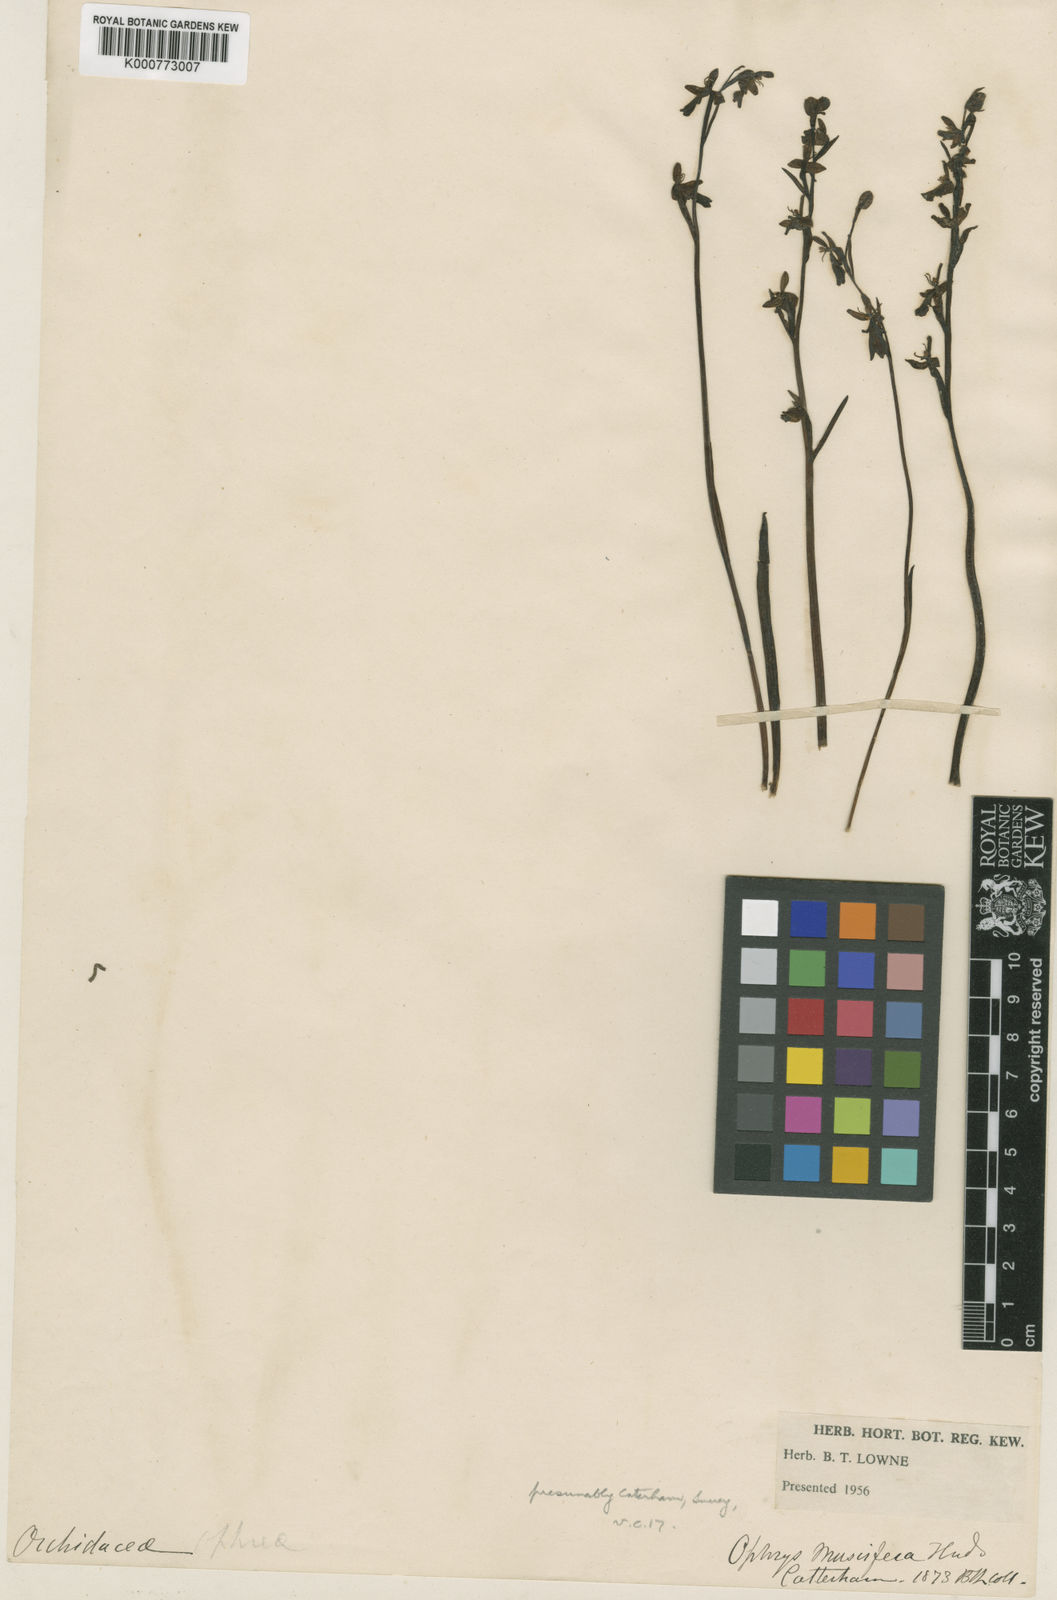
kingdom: Plantae
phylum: Tracheophyta
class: Liliopsida
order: Asparagales
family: Orchidaceae
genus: Ophrys
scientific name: Ophrys insectifera
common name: Fly orchid
